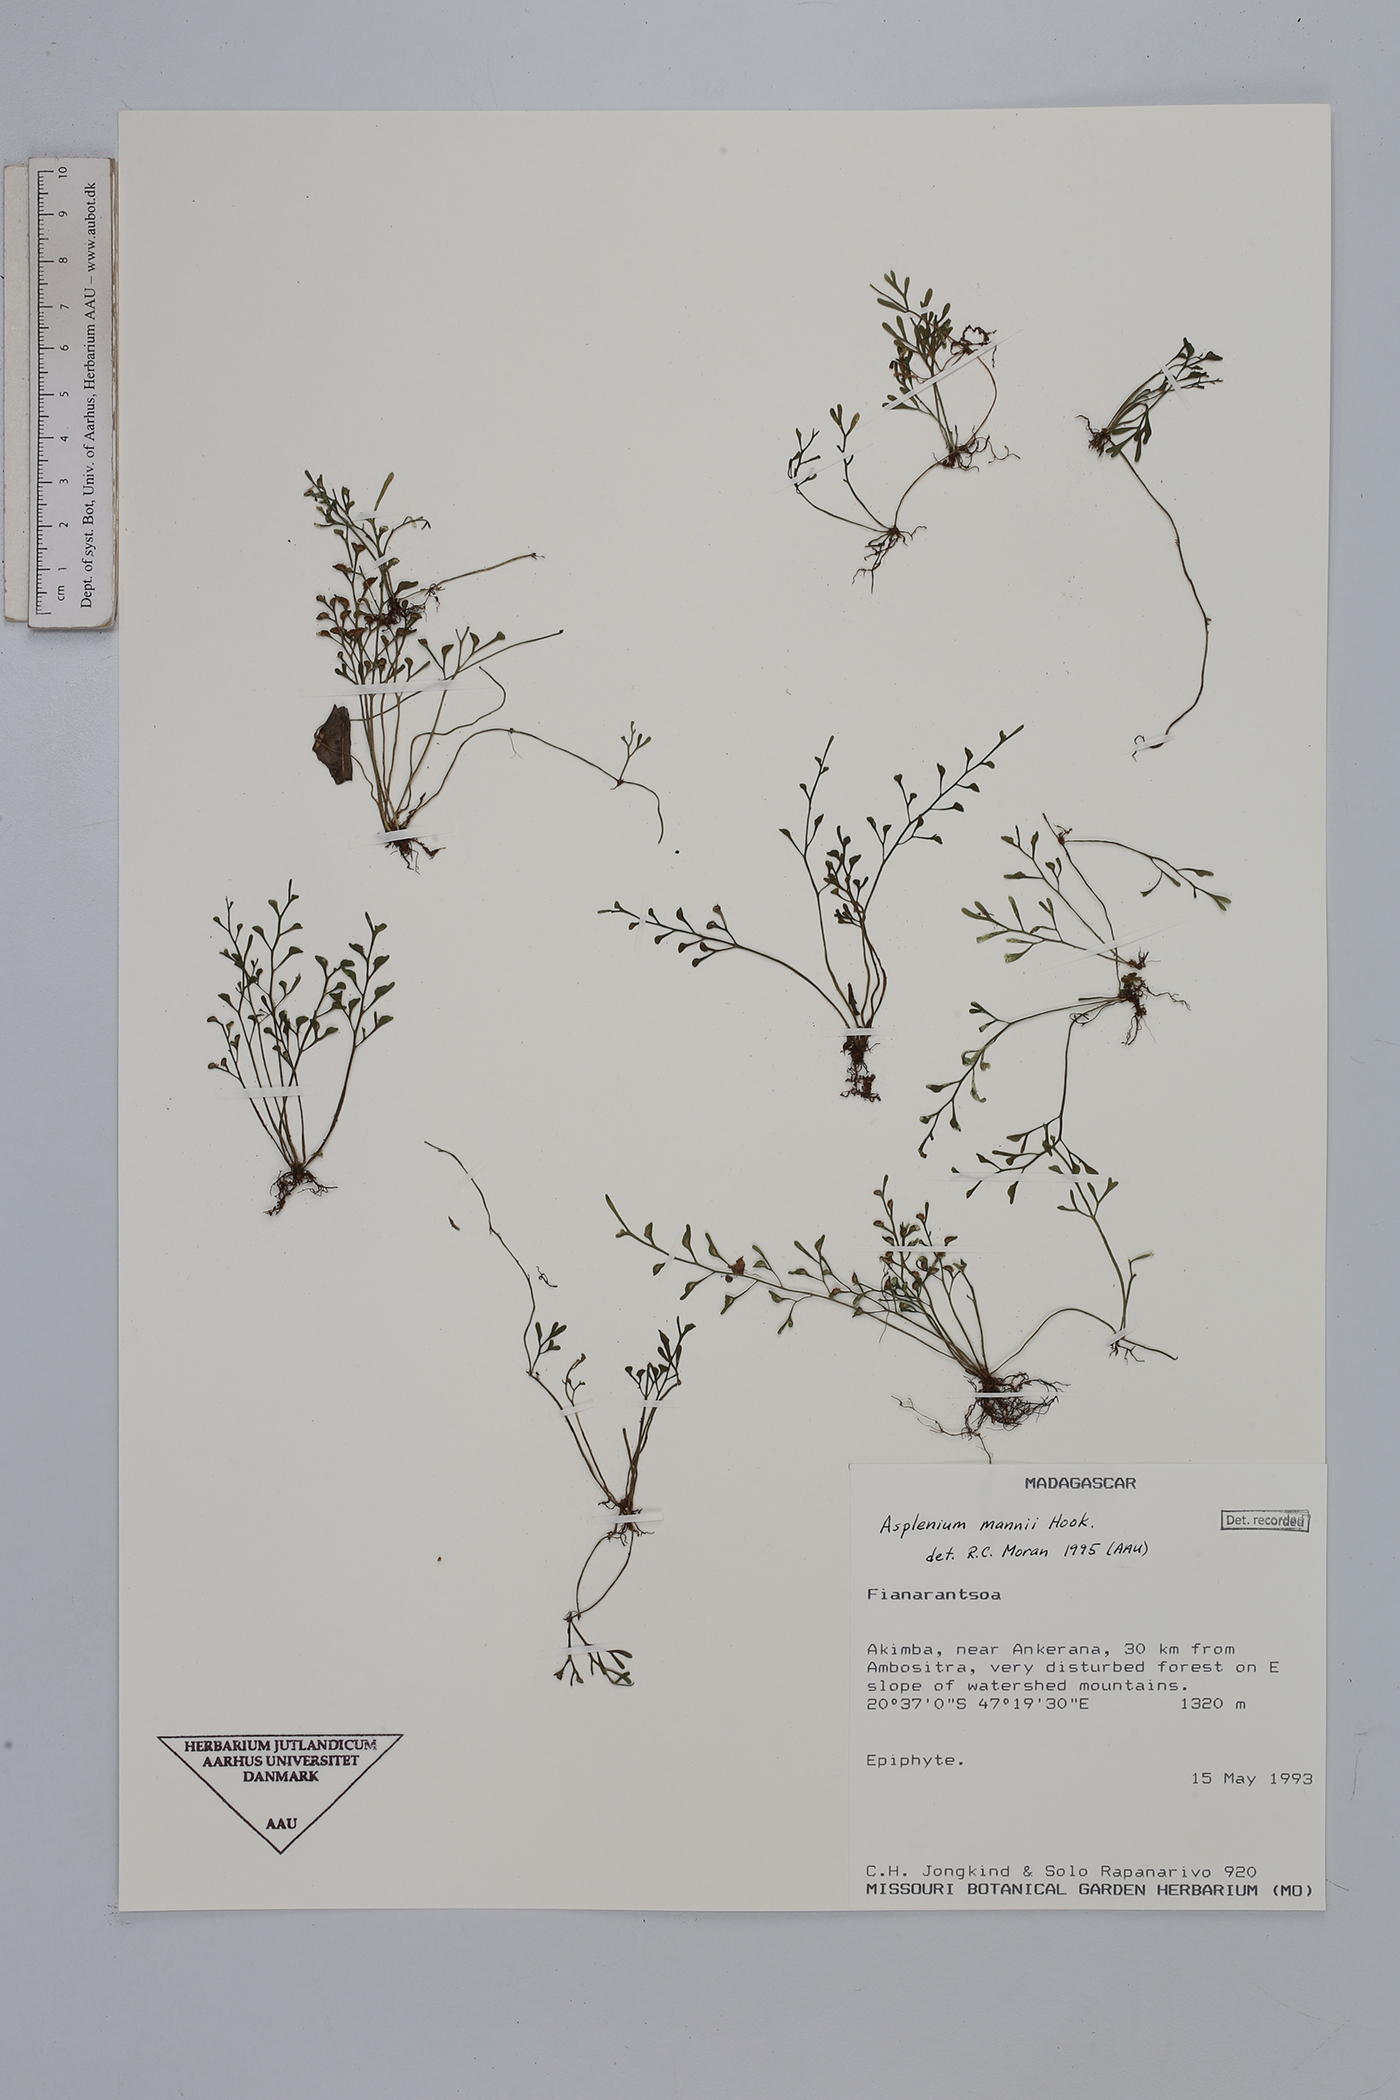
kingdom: Plantae
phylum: Tracheophyta
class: Polypodiopsida
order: Polypodiales
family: Aspleniaceae
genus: Asplenium
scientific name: Asplenium mannii
